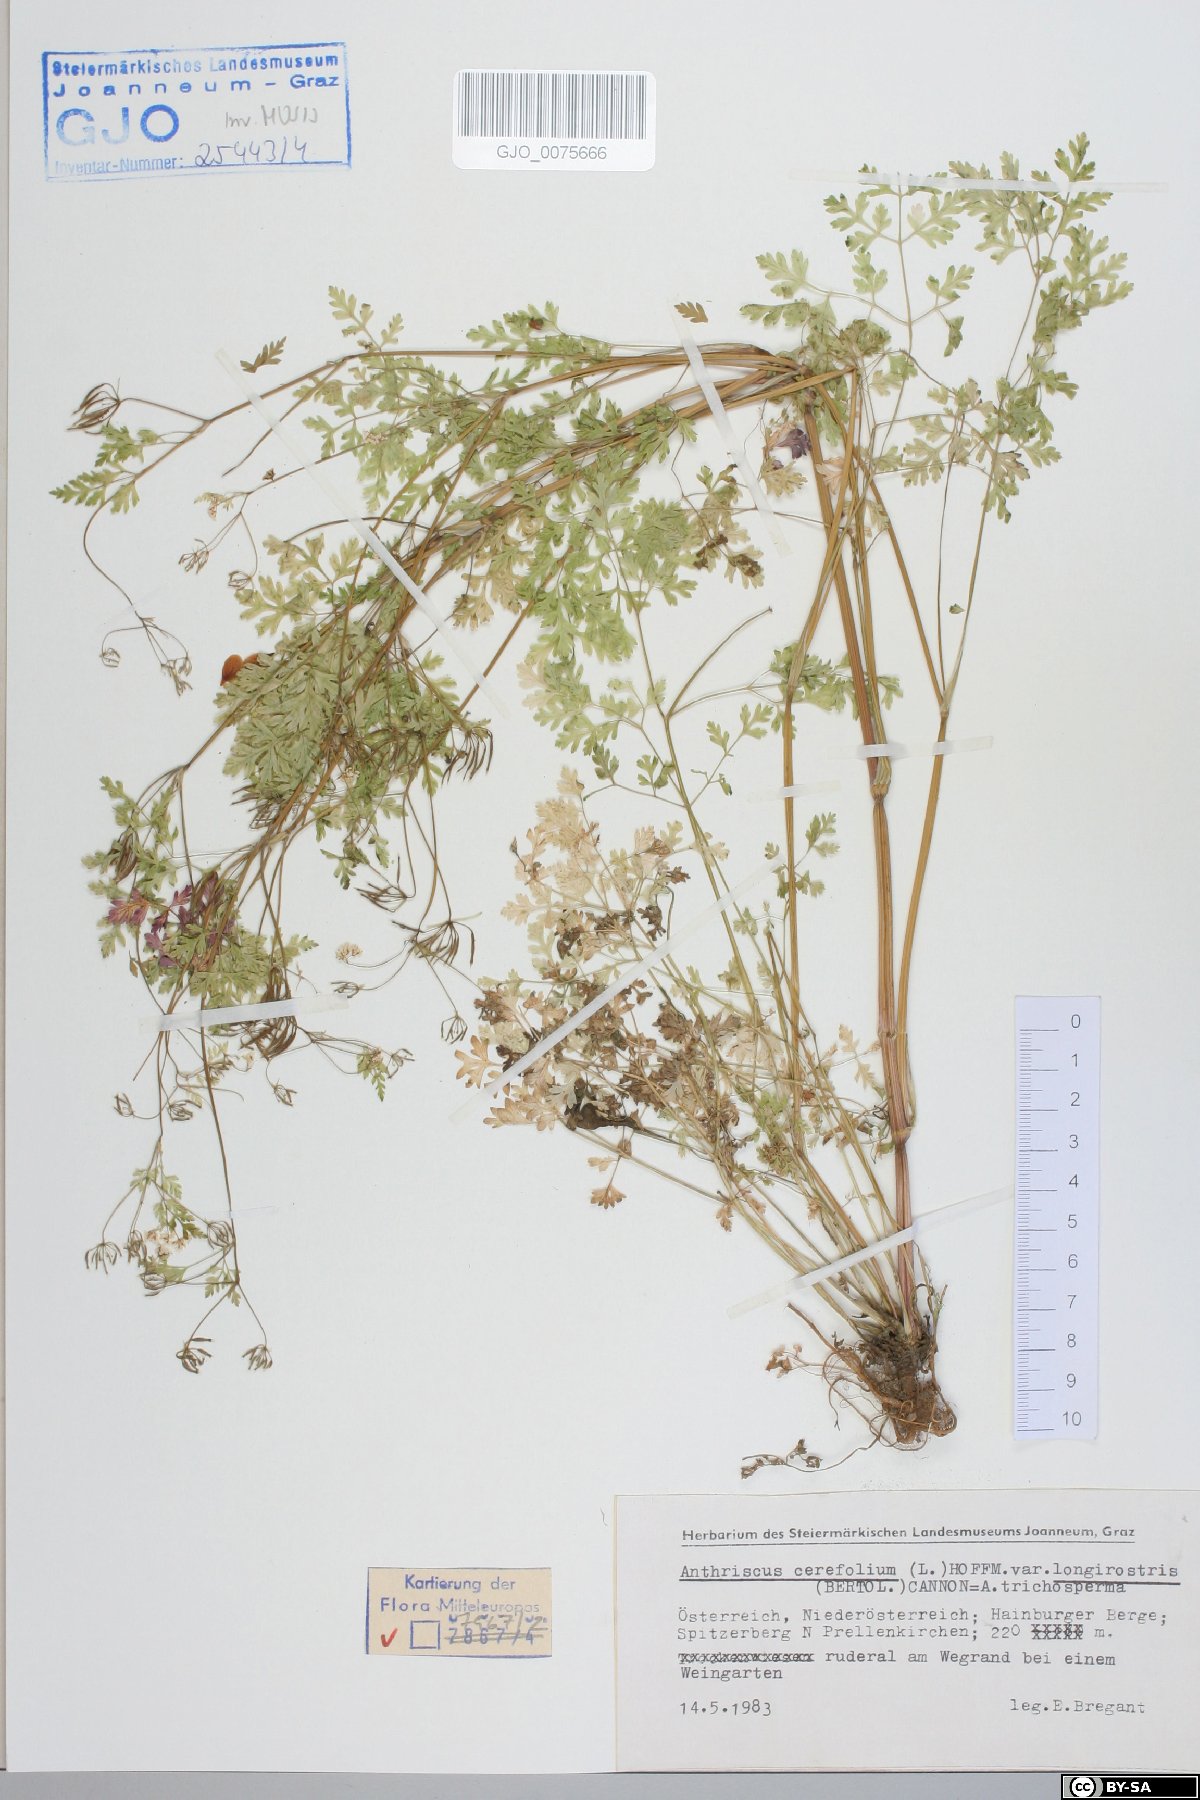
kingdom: Plantae
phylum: Tracheophyta
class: Magnoliopsida
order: Apiales
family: Apiaceae
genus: Anthriscus
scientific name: Anthriscus cerefolium
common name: Garden chervil
